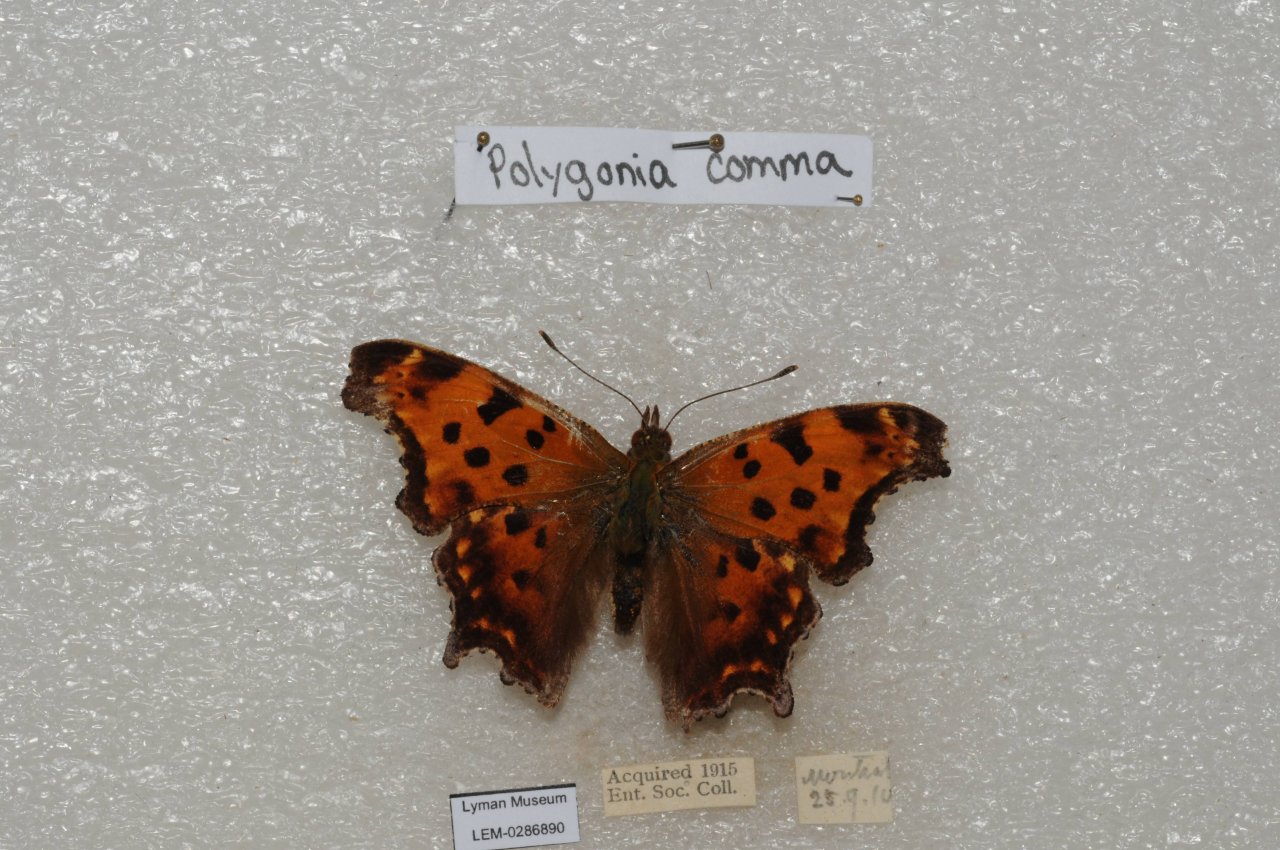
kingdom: Animalia
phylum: Arthropoda
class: Insecta
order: Lepidoptera
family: Nymphalidae
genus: Polygonia
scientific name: Polygonia comma
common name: Eastern Comma
